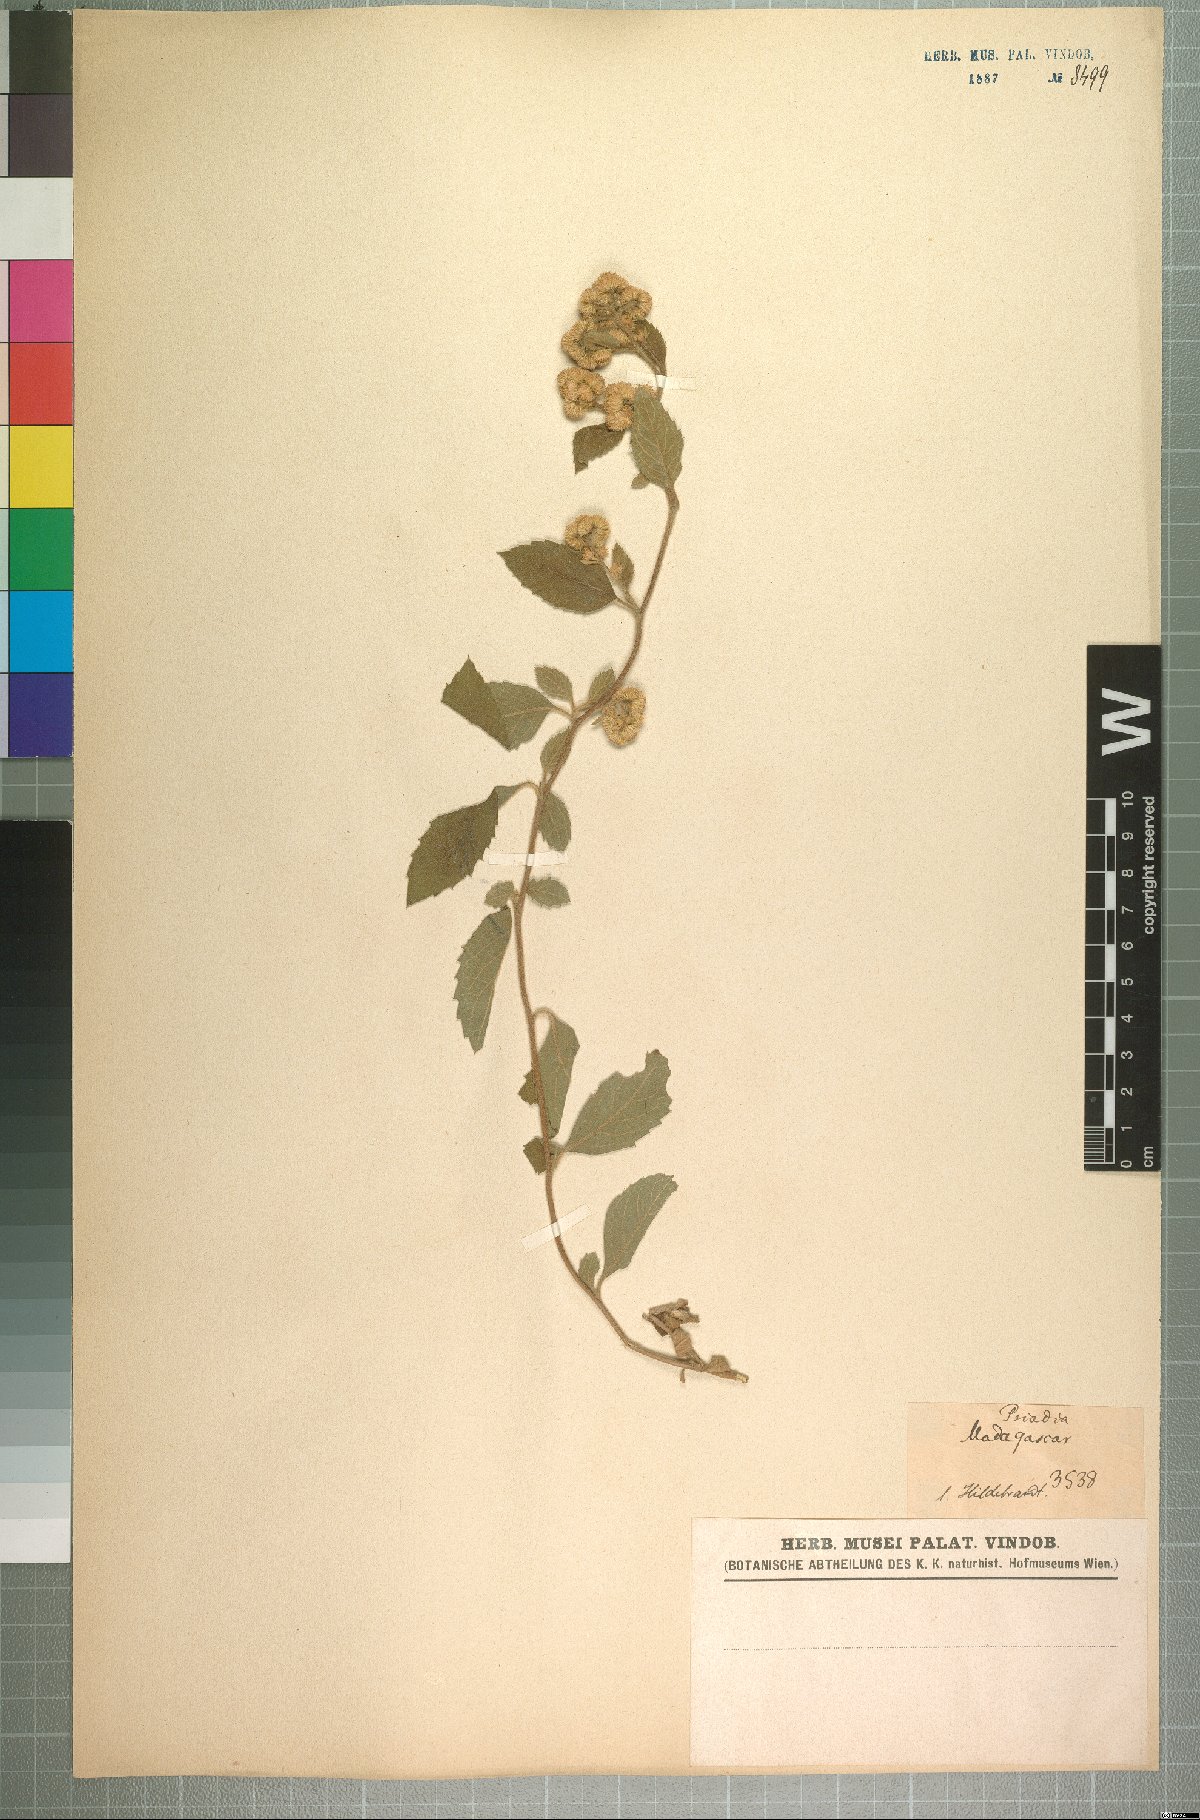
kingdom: Plantae
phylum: Tracheophyta
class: Magnoliopsida
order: Asterales
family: Asteraceae
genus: Psiadia
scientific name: Psiadia ageratoides
